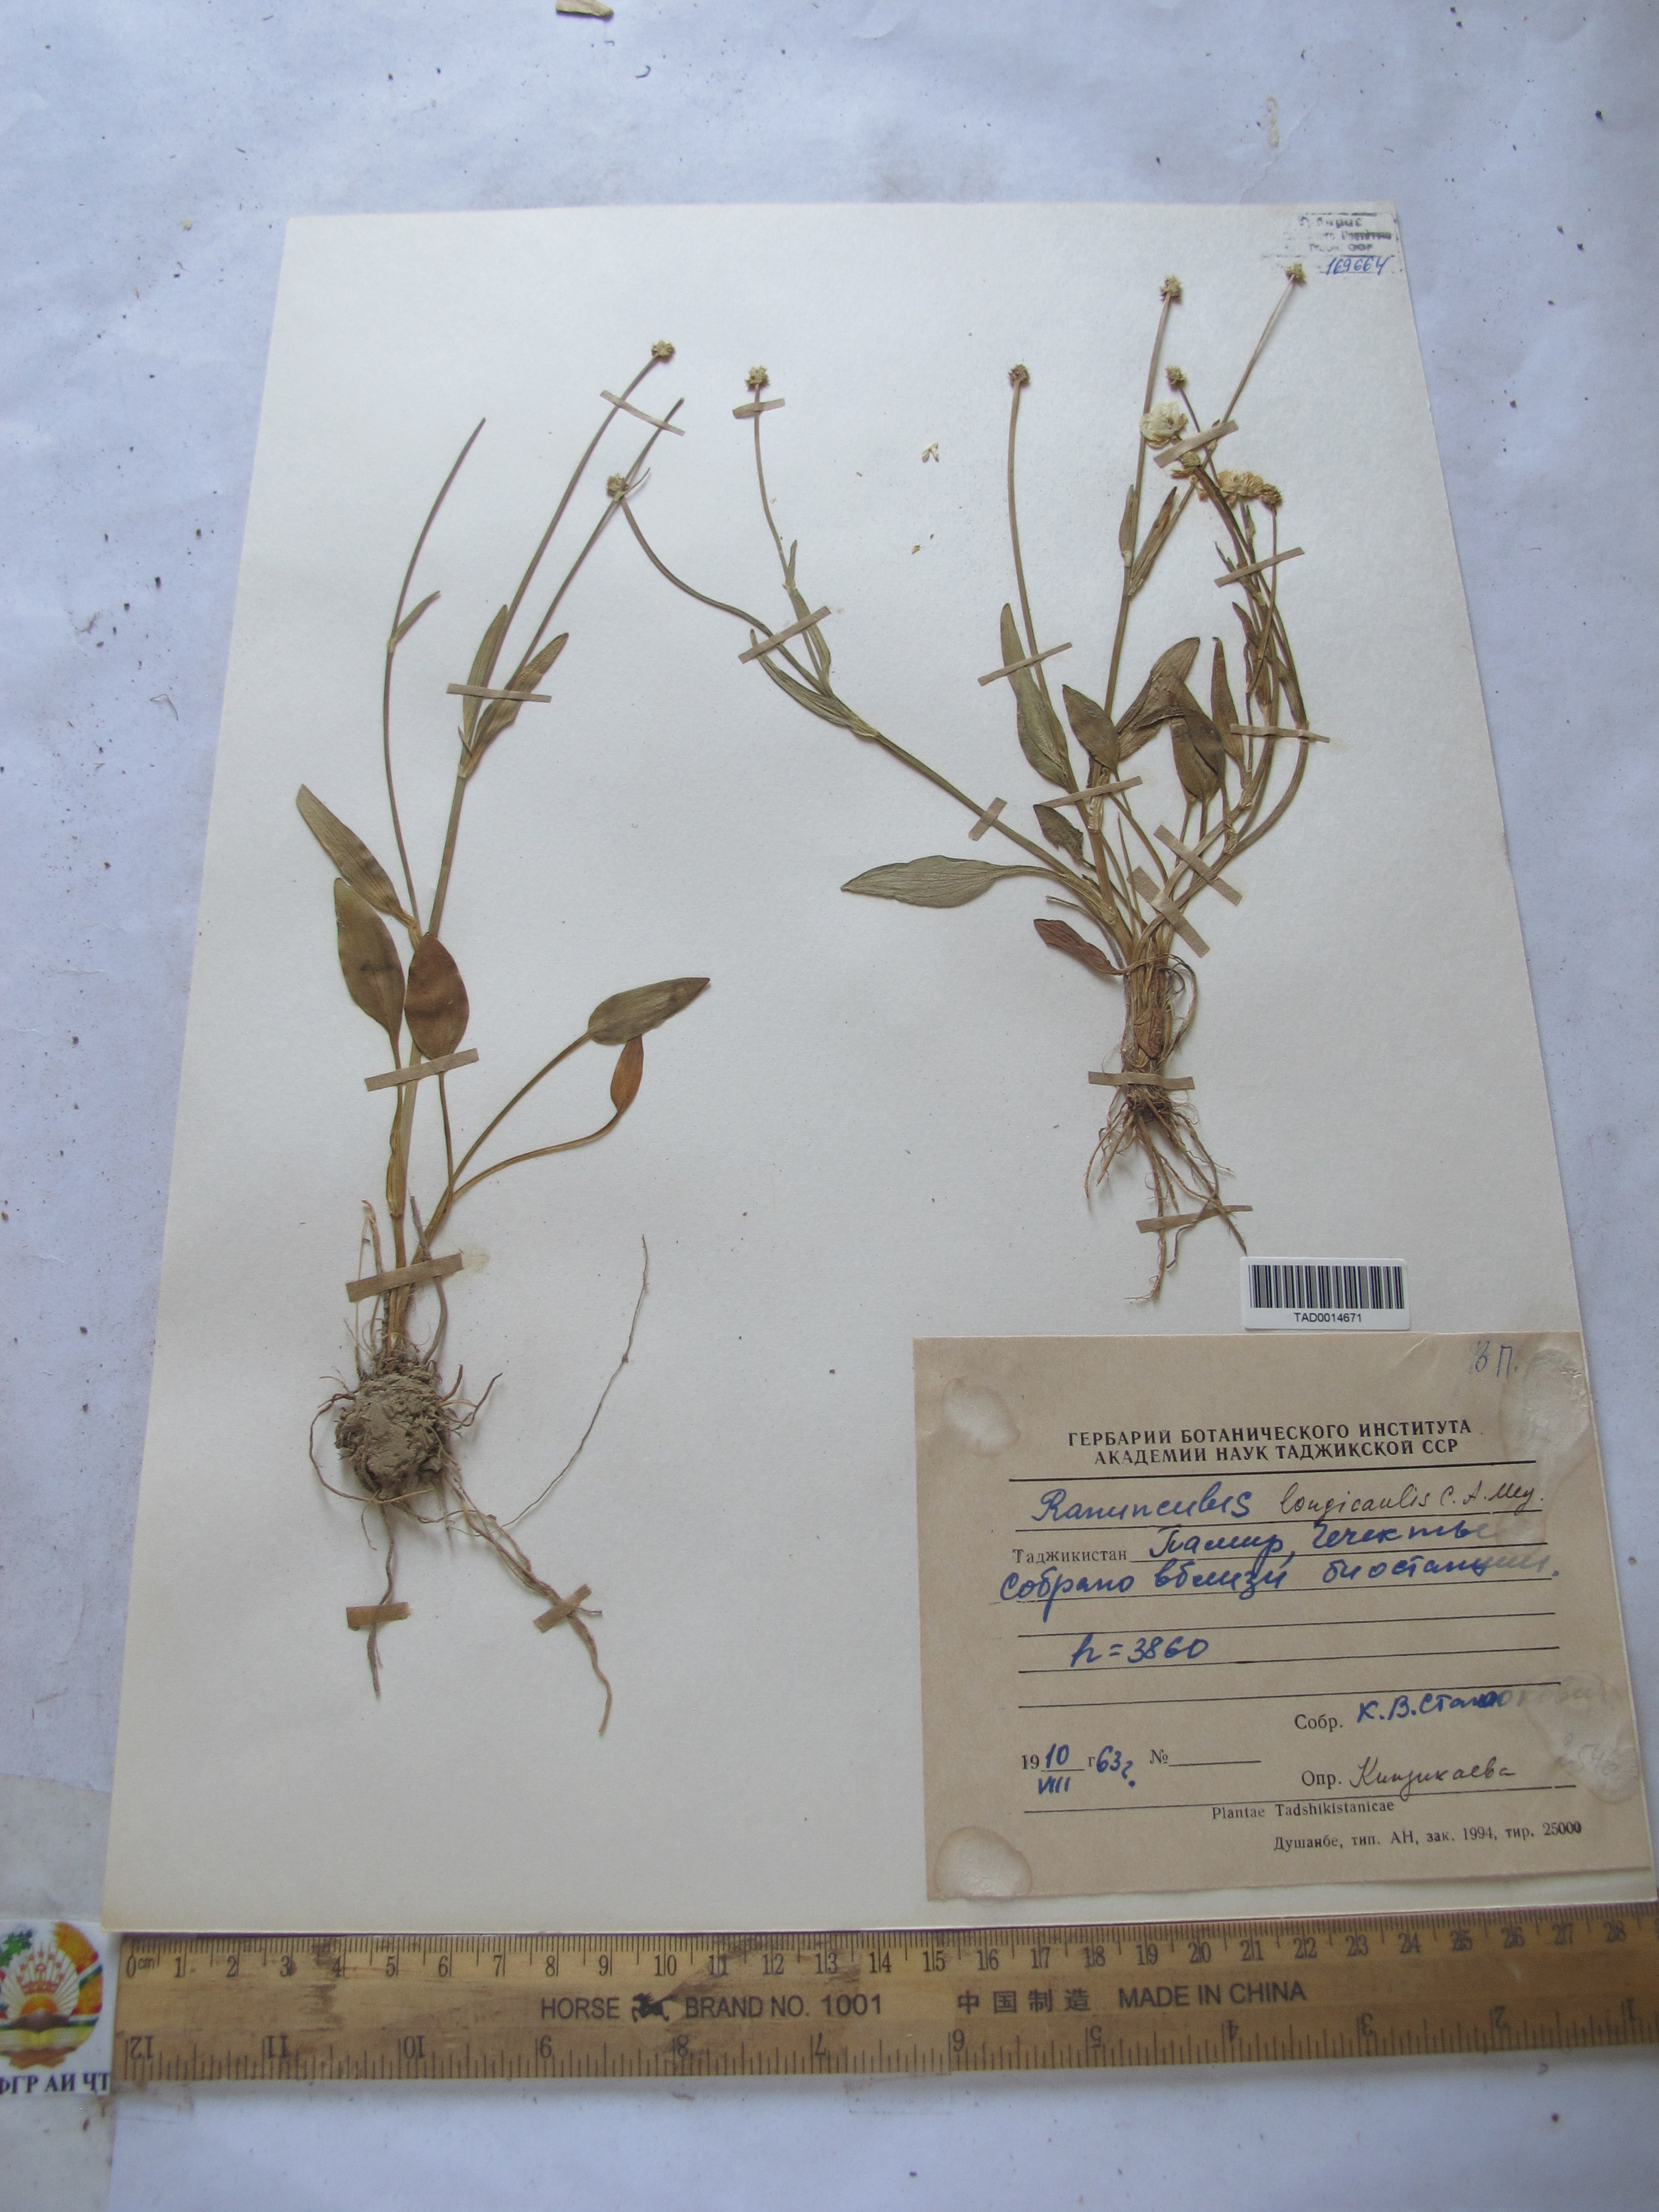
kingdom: Plantae
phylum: Tracheophyta
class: Magnoliopsida
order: Ranunculales
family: Ranunculaceae
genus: Ranunculus
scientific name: Ranunculus longicaulis
